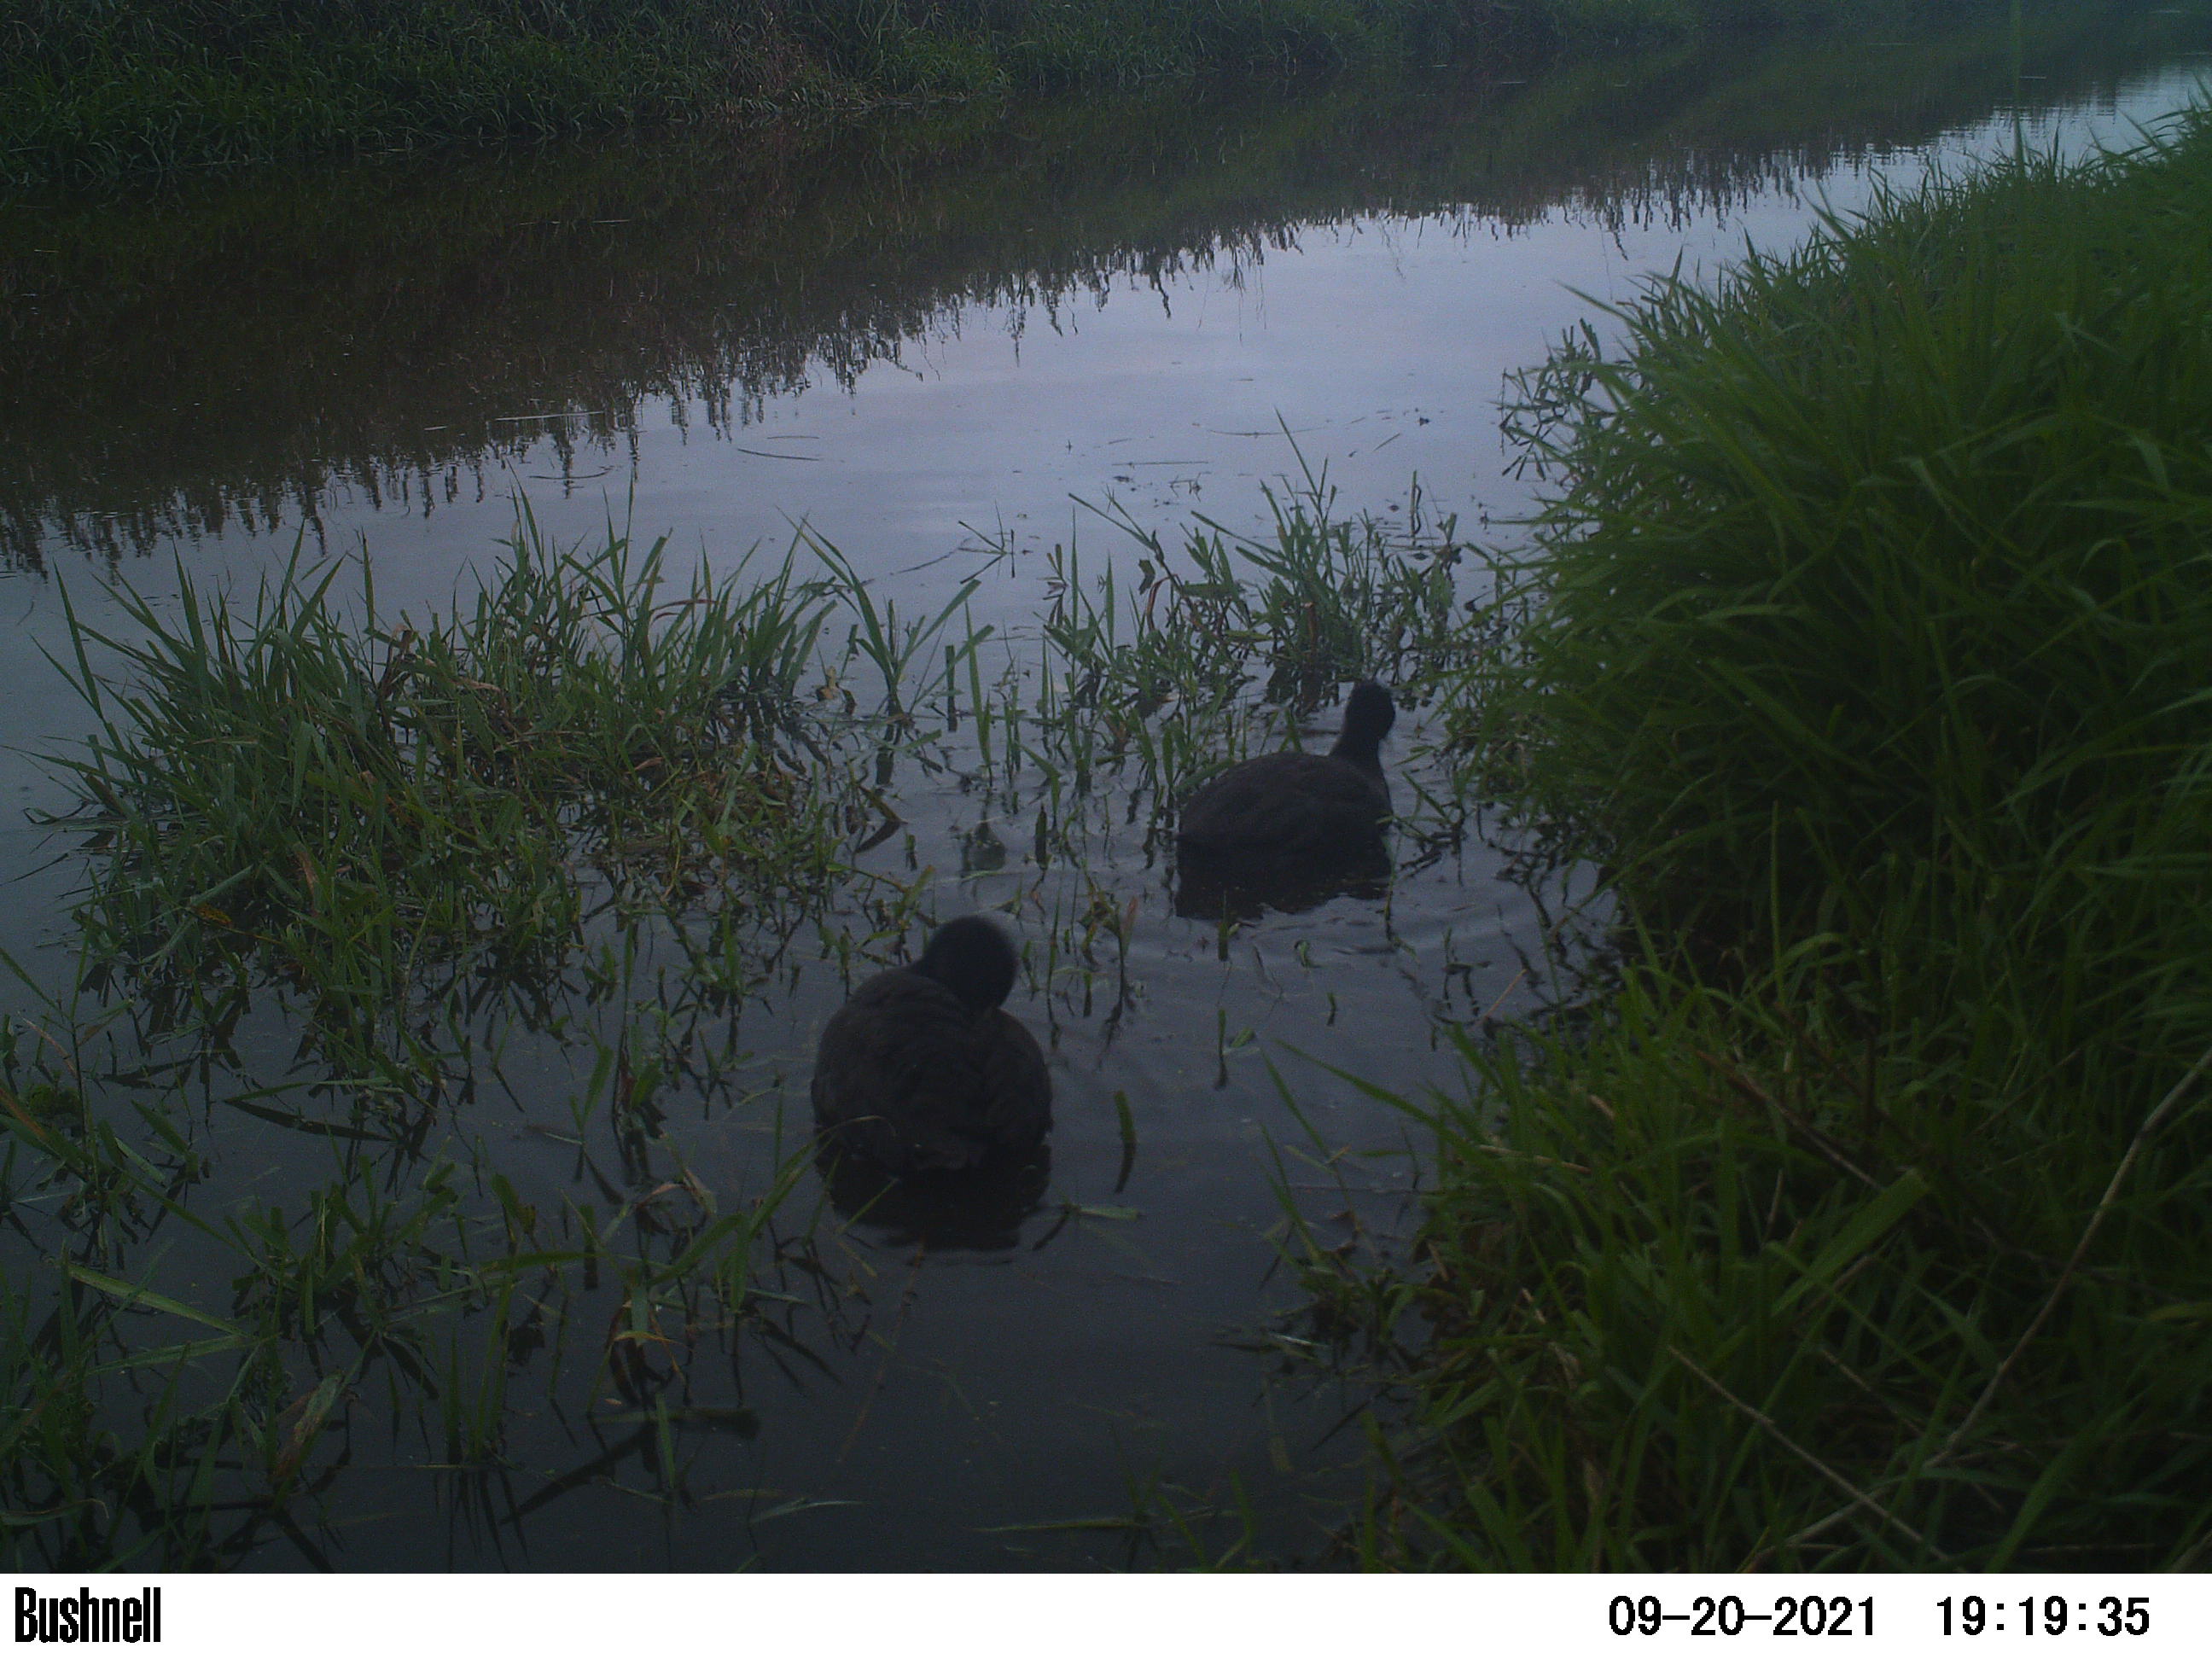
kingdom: Animalia
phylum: Chordata
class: Aves
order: Gruiformes
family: Rallidae
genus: Fulica
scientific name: Fulica atra
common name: Eurasian coot
